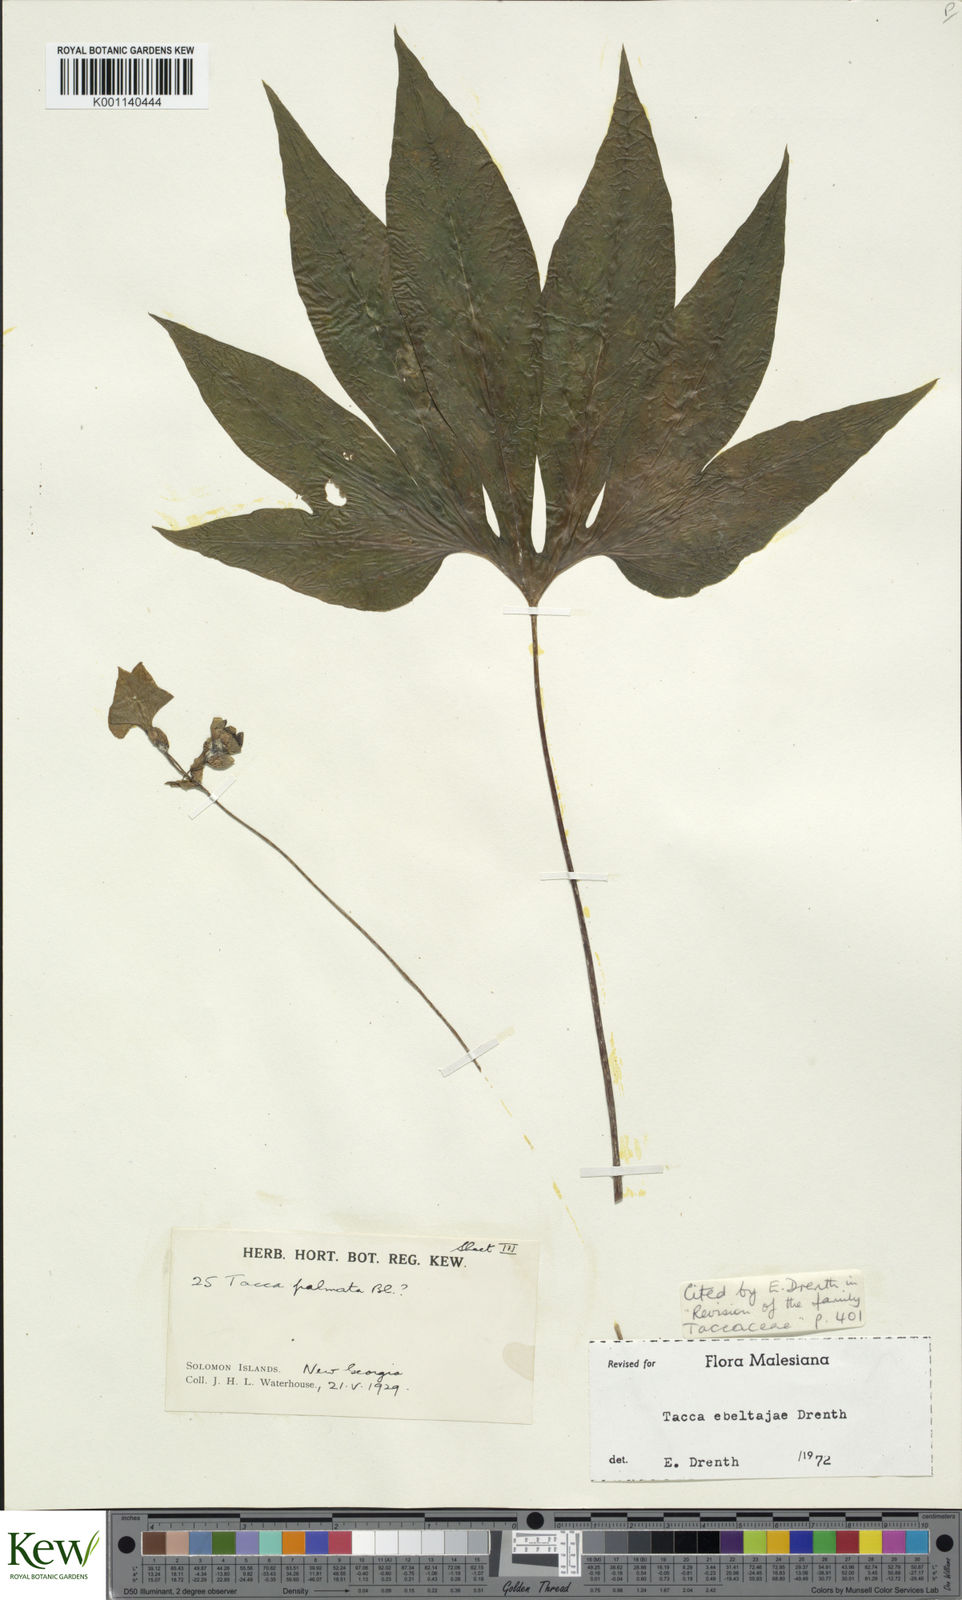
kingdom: Plantae
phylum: Tracheophyta
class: Liliopsida
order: Dioscoreales
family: Dioscoreaceae
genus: Tacca
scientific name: Tacca ebeltajae
